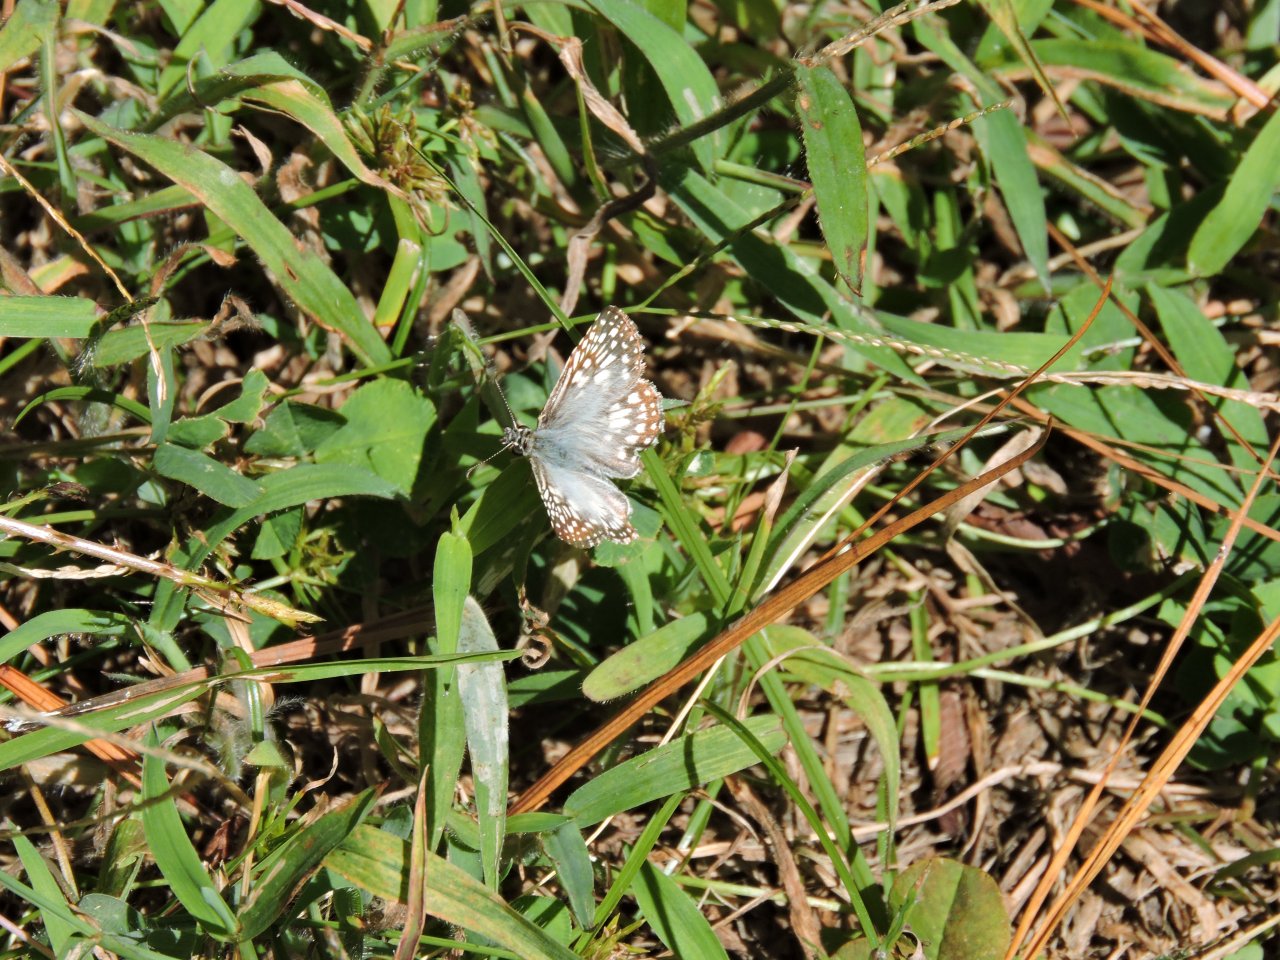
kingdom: Animalia
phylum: Arthropoda
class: Insecta
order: Lepidoptera
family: Hesperiidae
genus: Pyrgus
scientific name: Pyrgus oileus
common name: Tropical Checkered-Skipper
